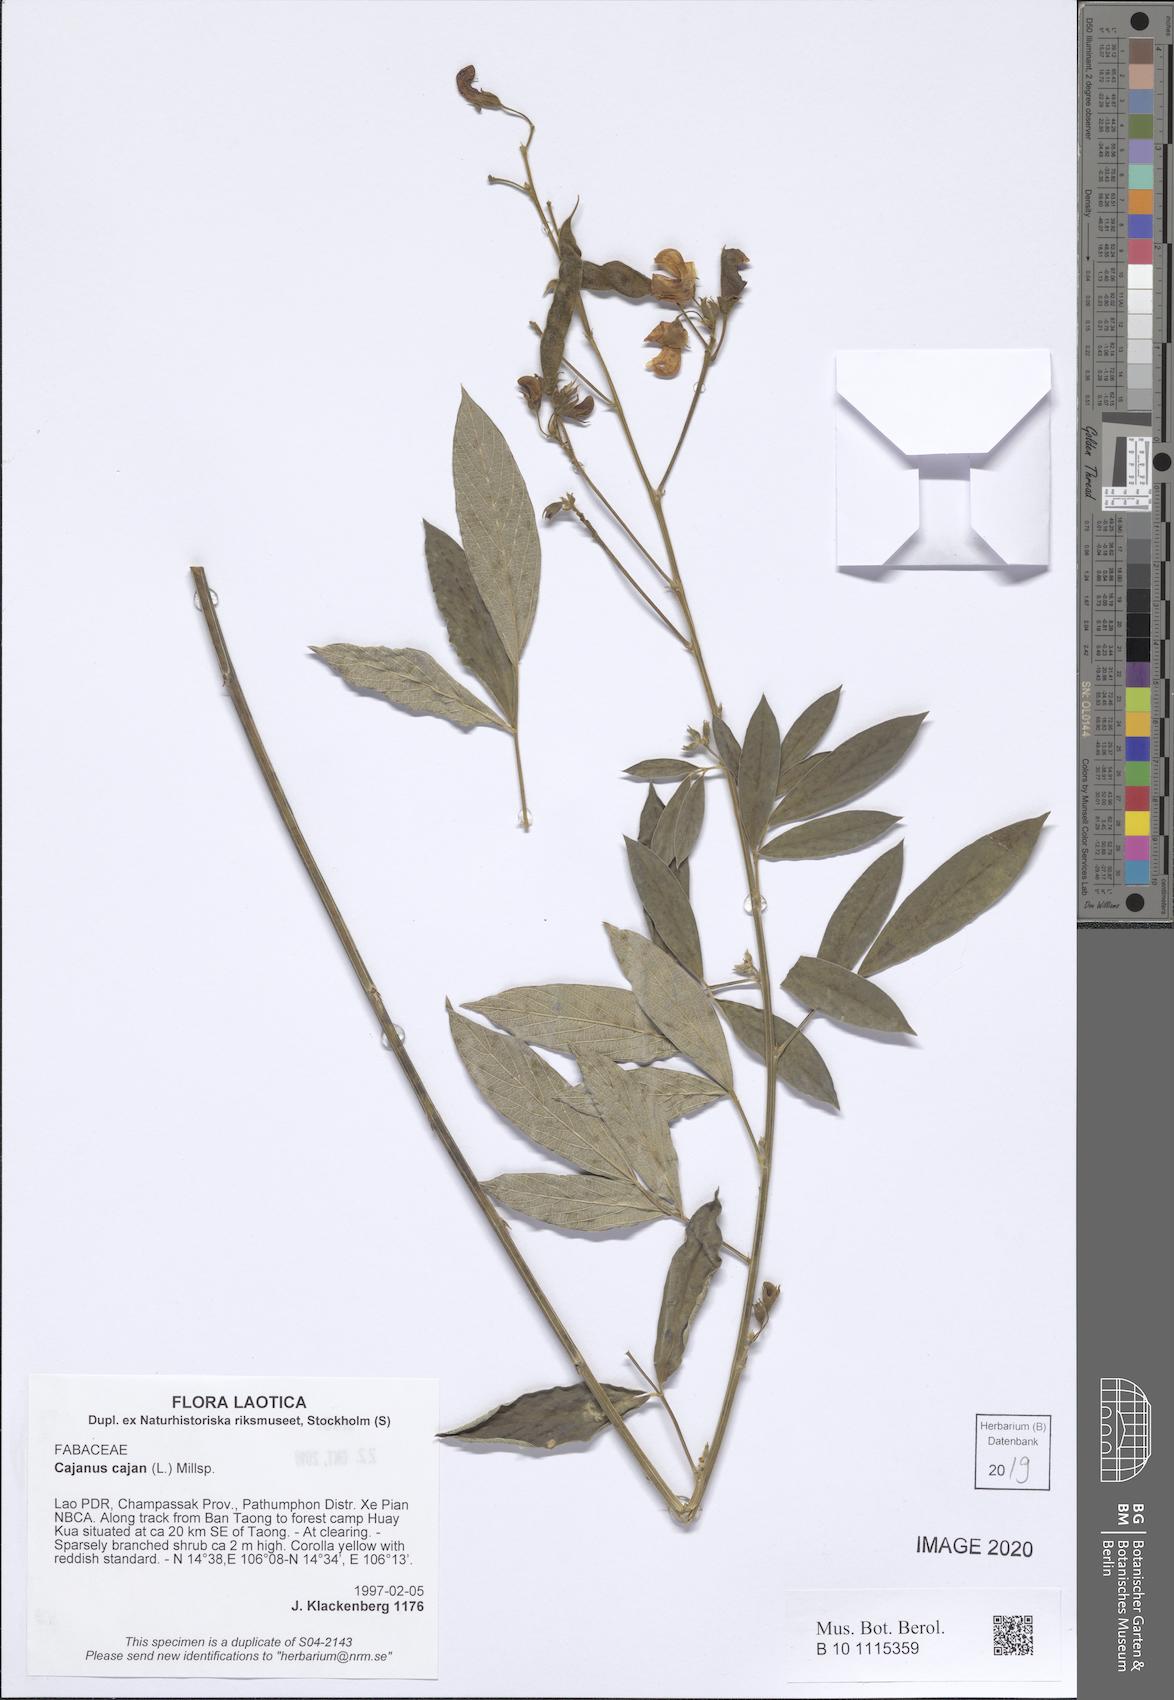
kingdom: Plantae
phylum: Tracheophyta
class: Magnoliopsida
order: Fabales
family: Fabaceae
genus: Cajanus
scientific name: Cajanus cajan
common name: Pigeonpea
